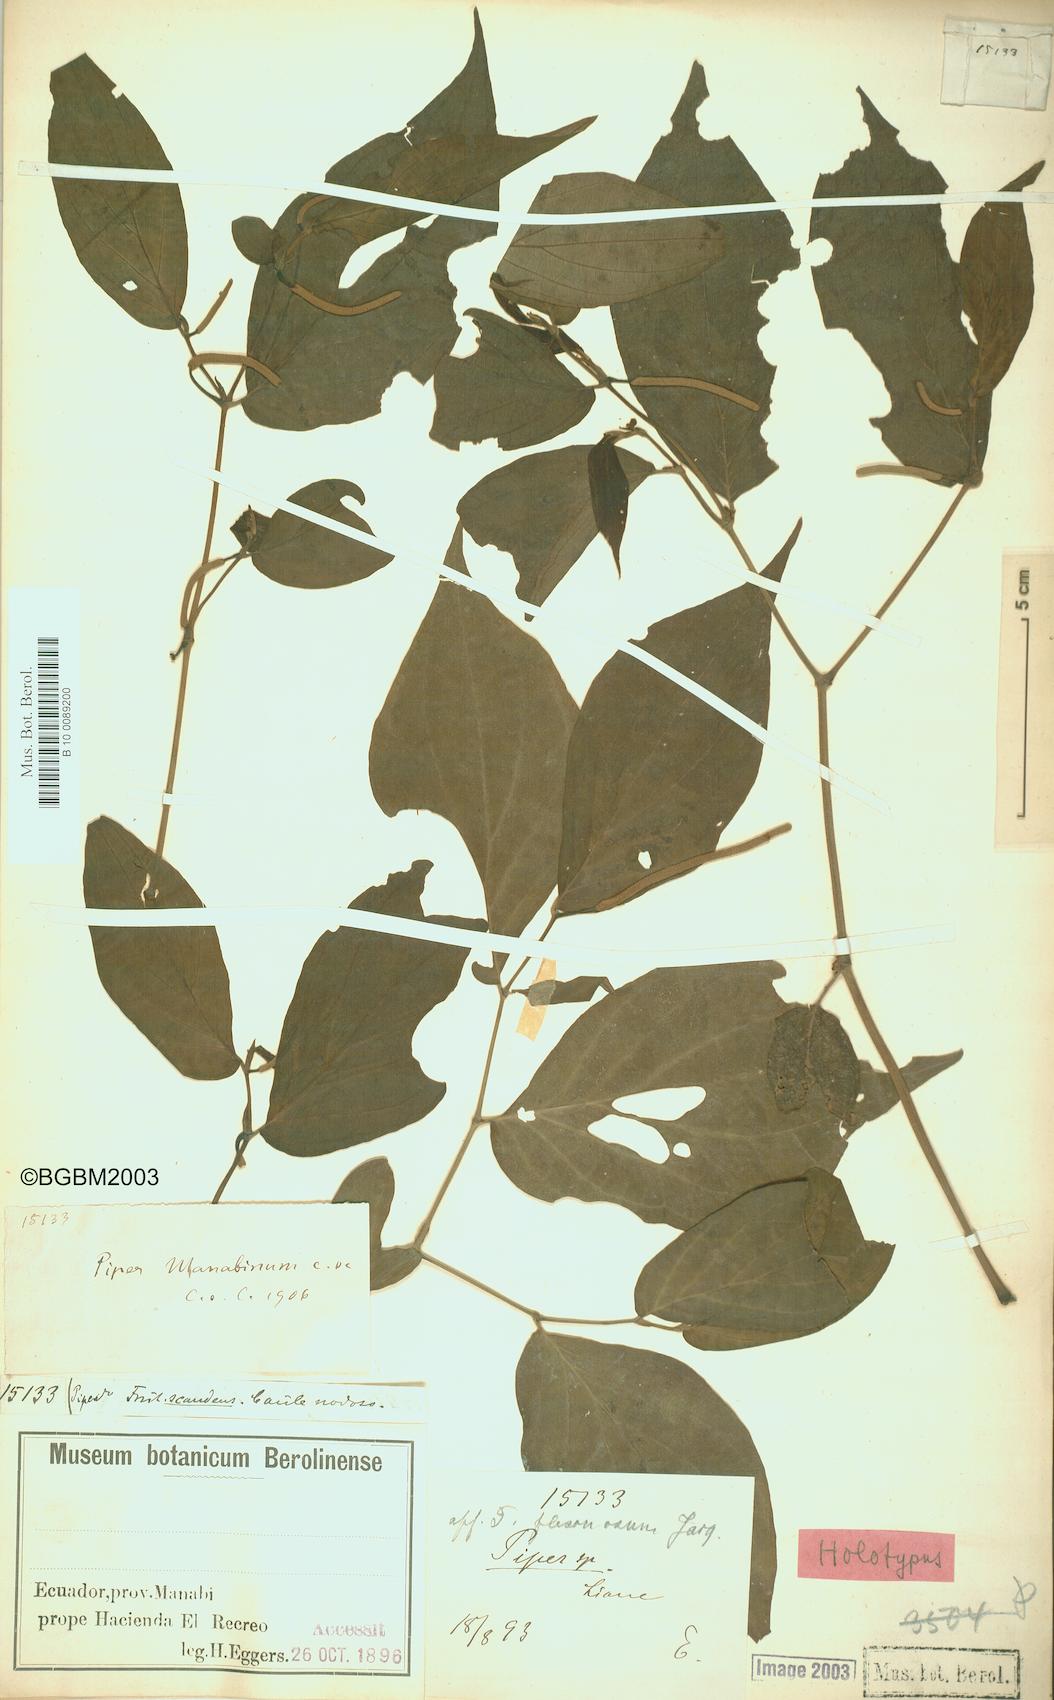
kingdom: Plantae
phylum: Tracheophyta
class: Magnoliopsida
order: Piperales
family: Piperaceae
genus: Piper
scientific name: Piper manabinum
